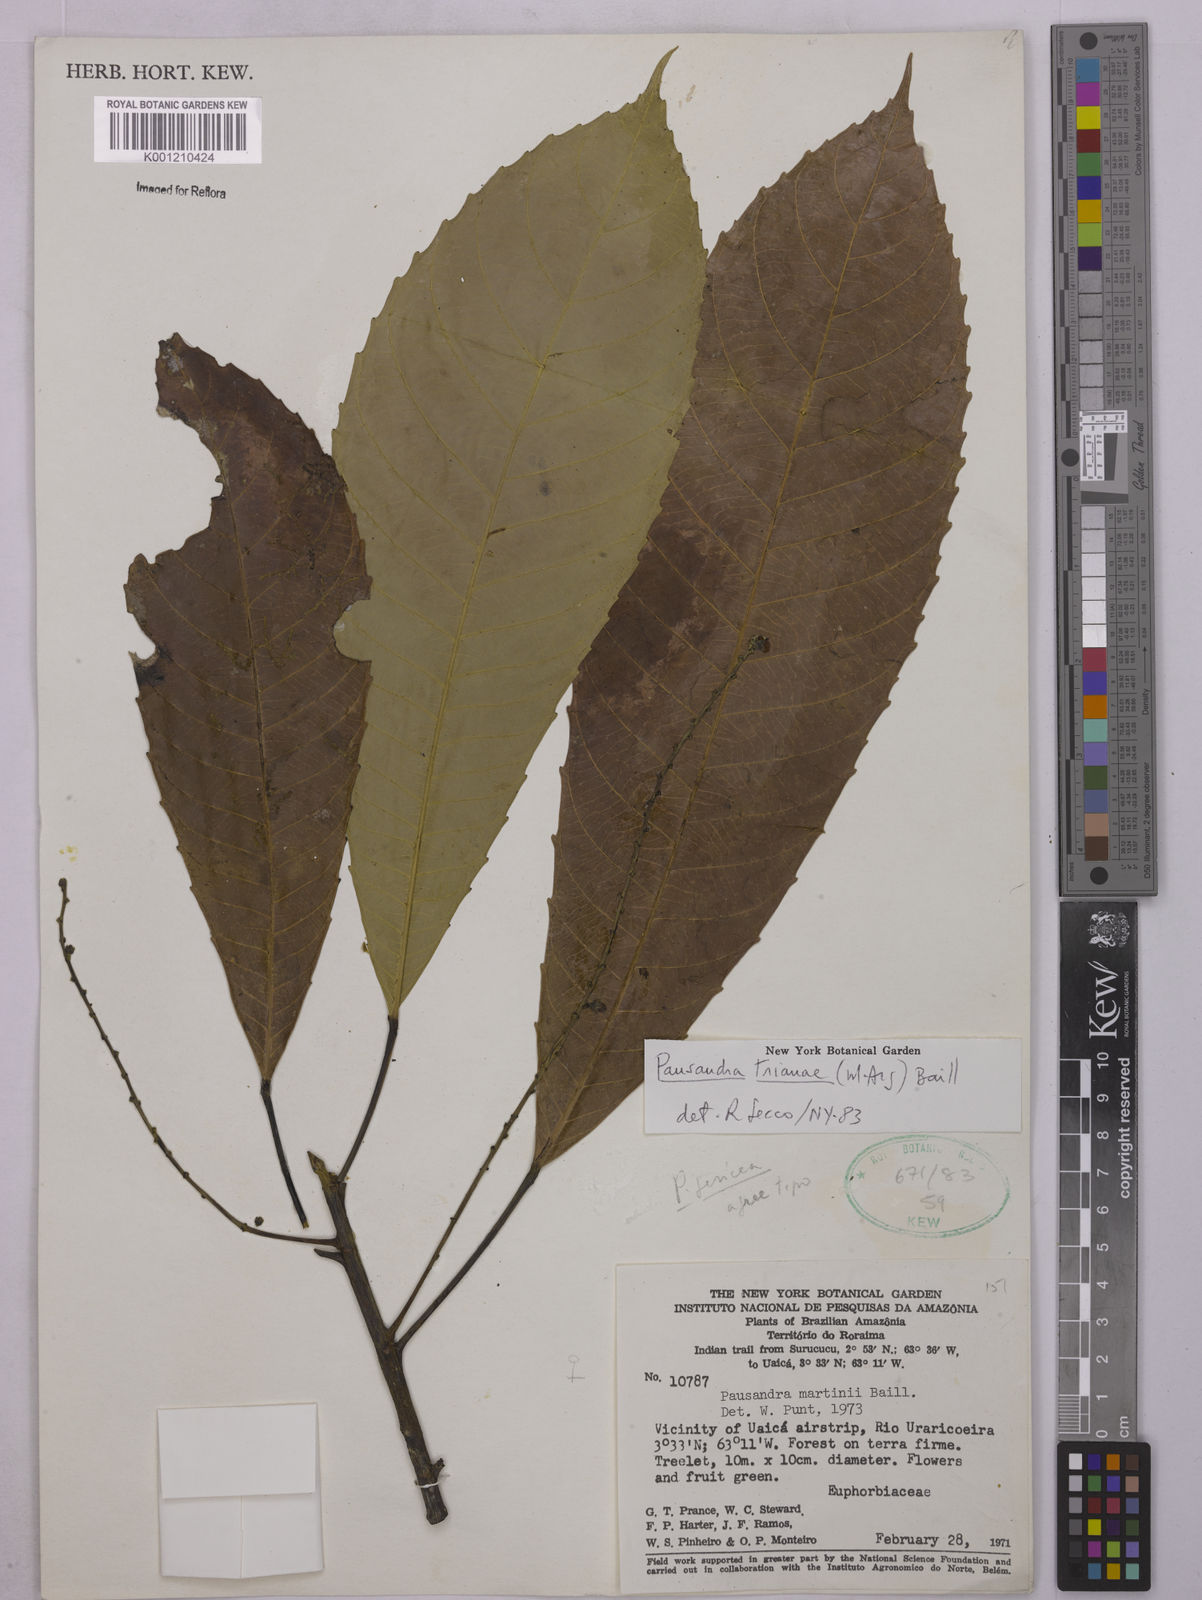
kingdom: Plantae
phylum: Tracheophyta
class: Magnoliopsida
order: Malpighiales
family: Euphorbiaceae
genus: Pausandra
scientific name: Pausandra
